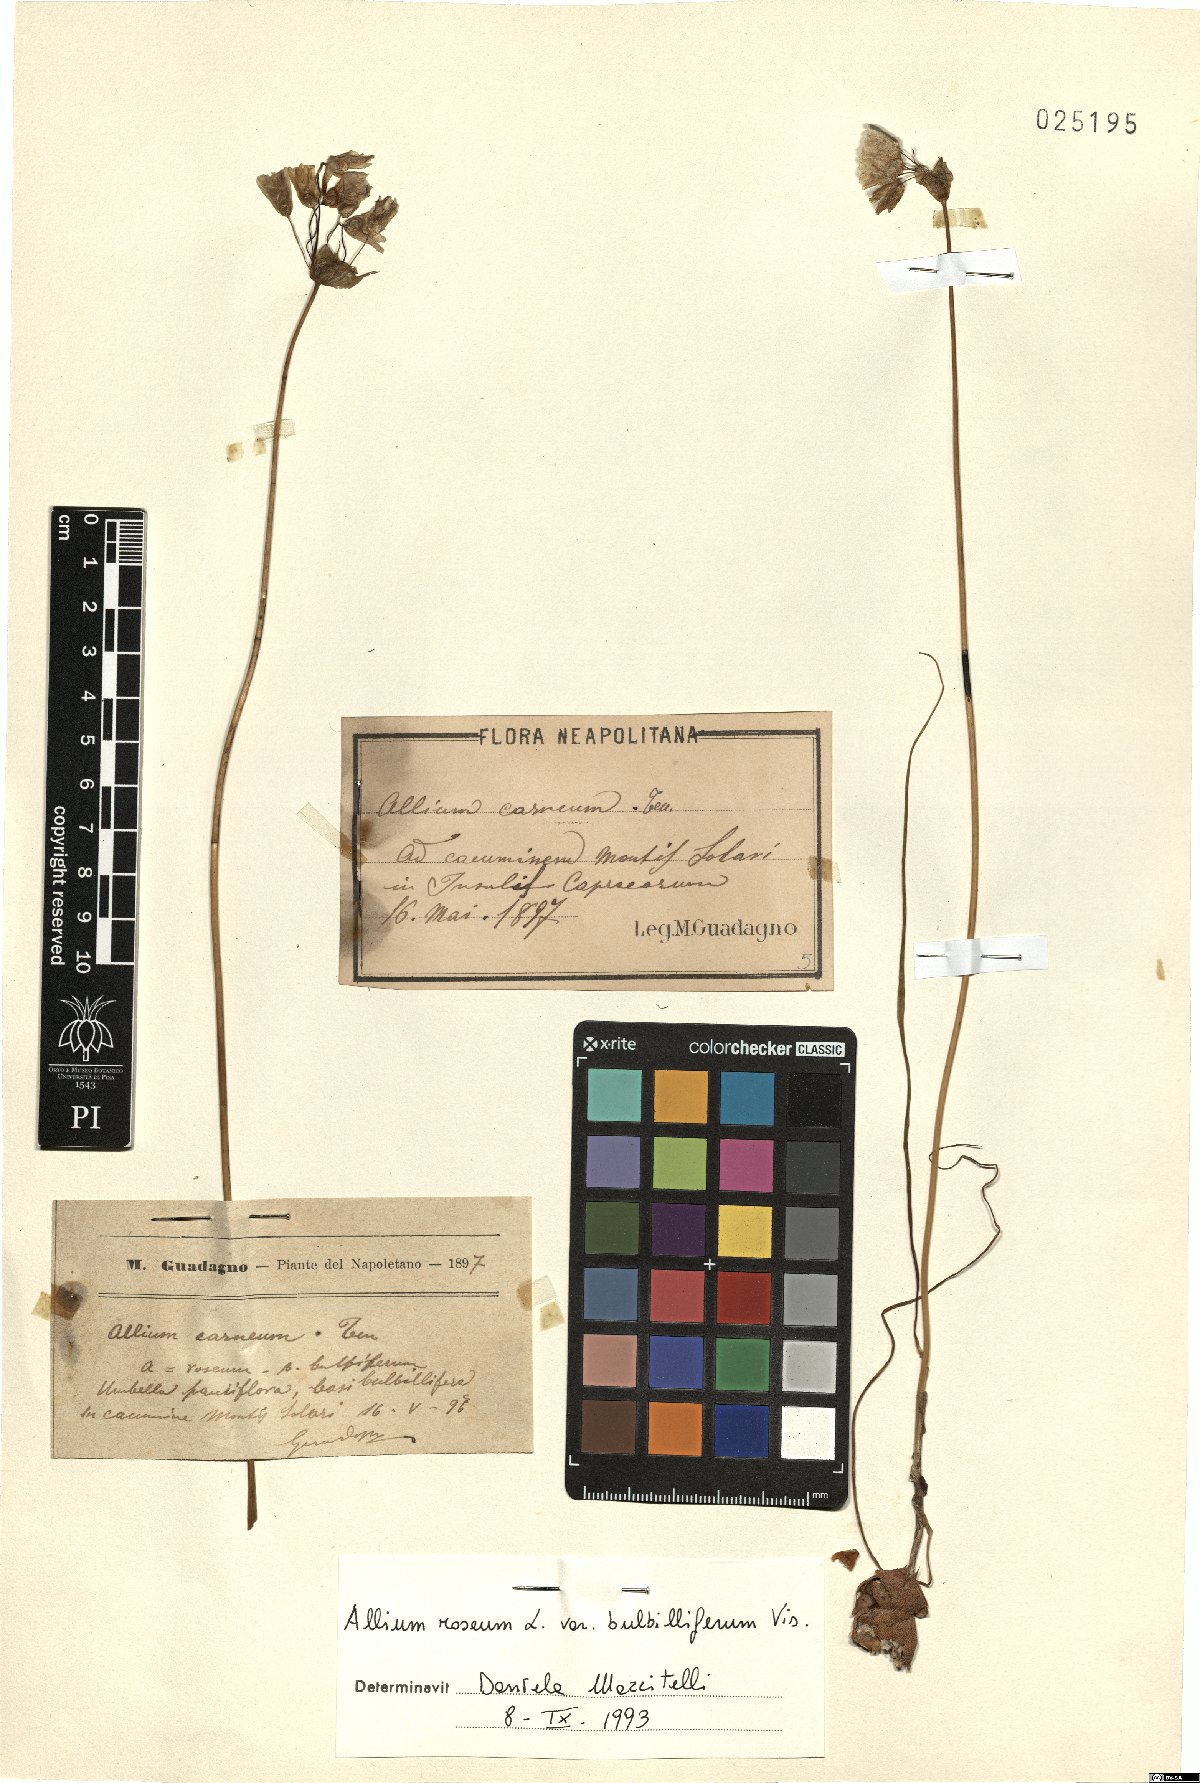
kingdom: Plantae
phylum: Tracheophyta
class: Liliopsida
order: Asparagales
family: Amaryllidaceae
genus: Allium
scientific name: Allium roseum
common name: Rosy garlic
